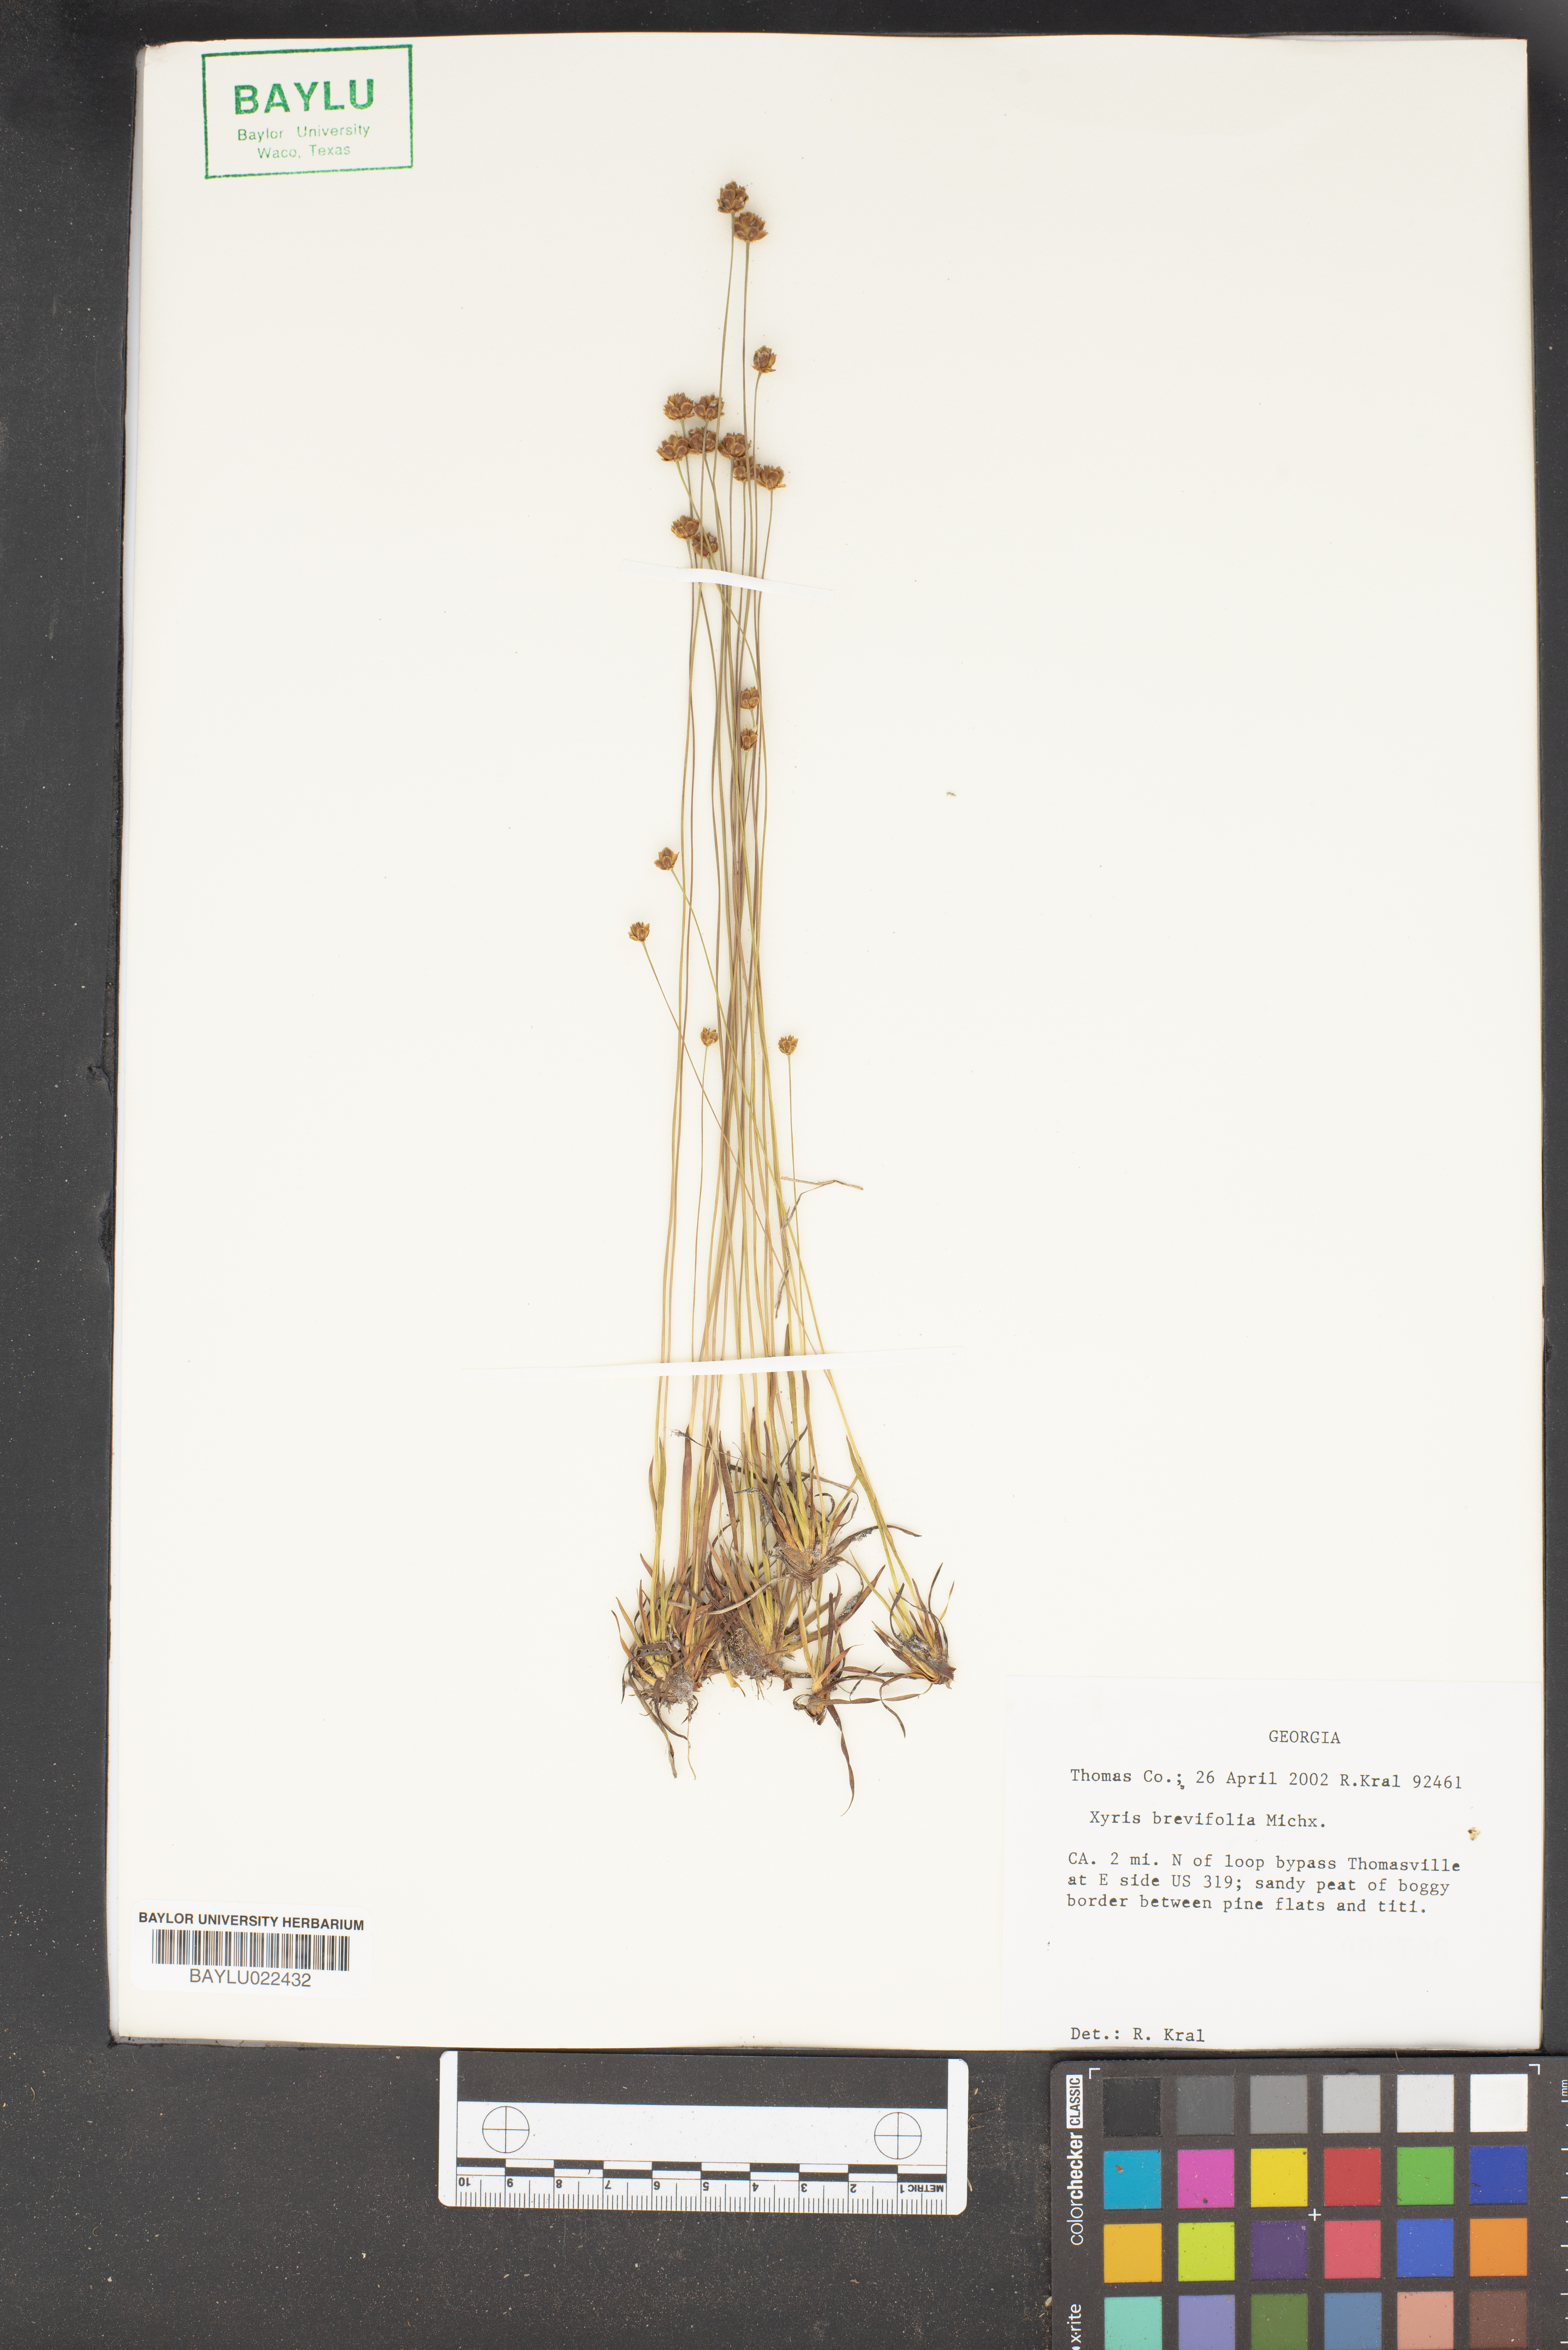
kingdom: Plantae
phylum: Tracheophyta
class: Liliopsida
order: Poales
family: Xyridaceae
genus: Xyris
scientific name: Xyris brevifolia
